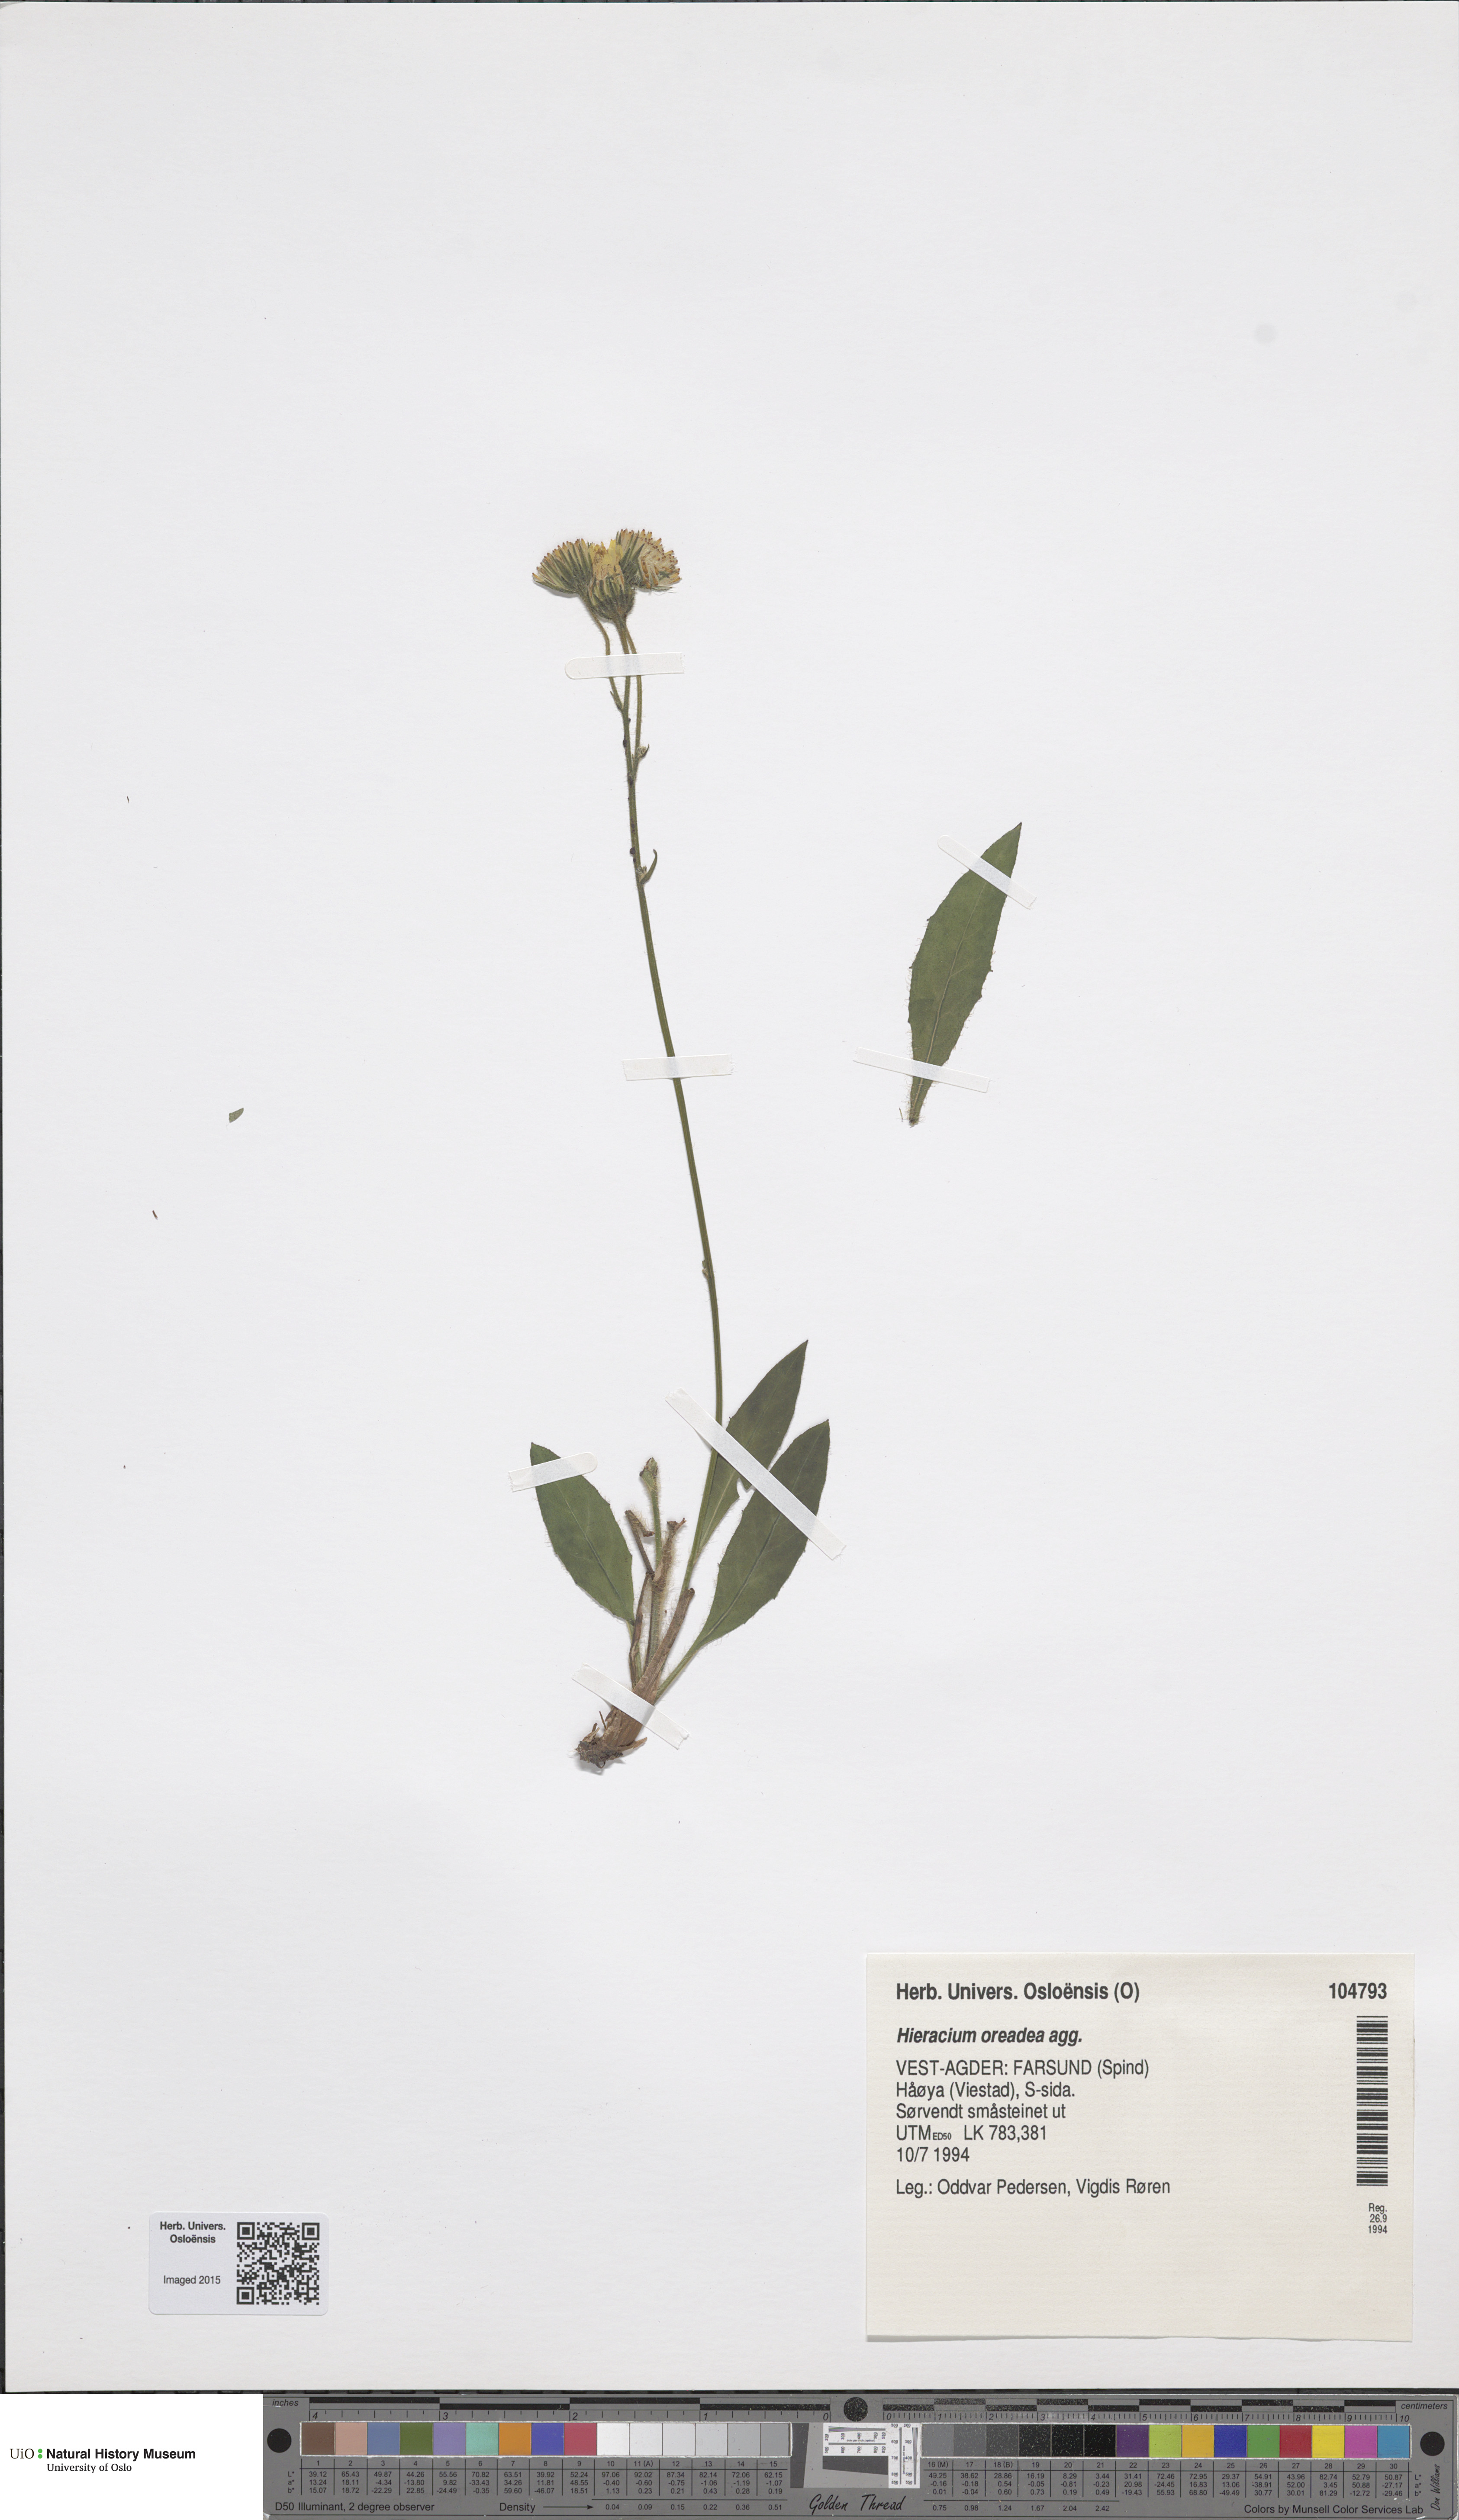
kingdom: Plantae
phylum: Tracheophyta
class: Magnoliopsida
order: Asterales
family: Asteraceae
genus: Hieracium
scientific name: Hieracium
